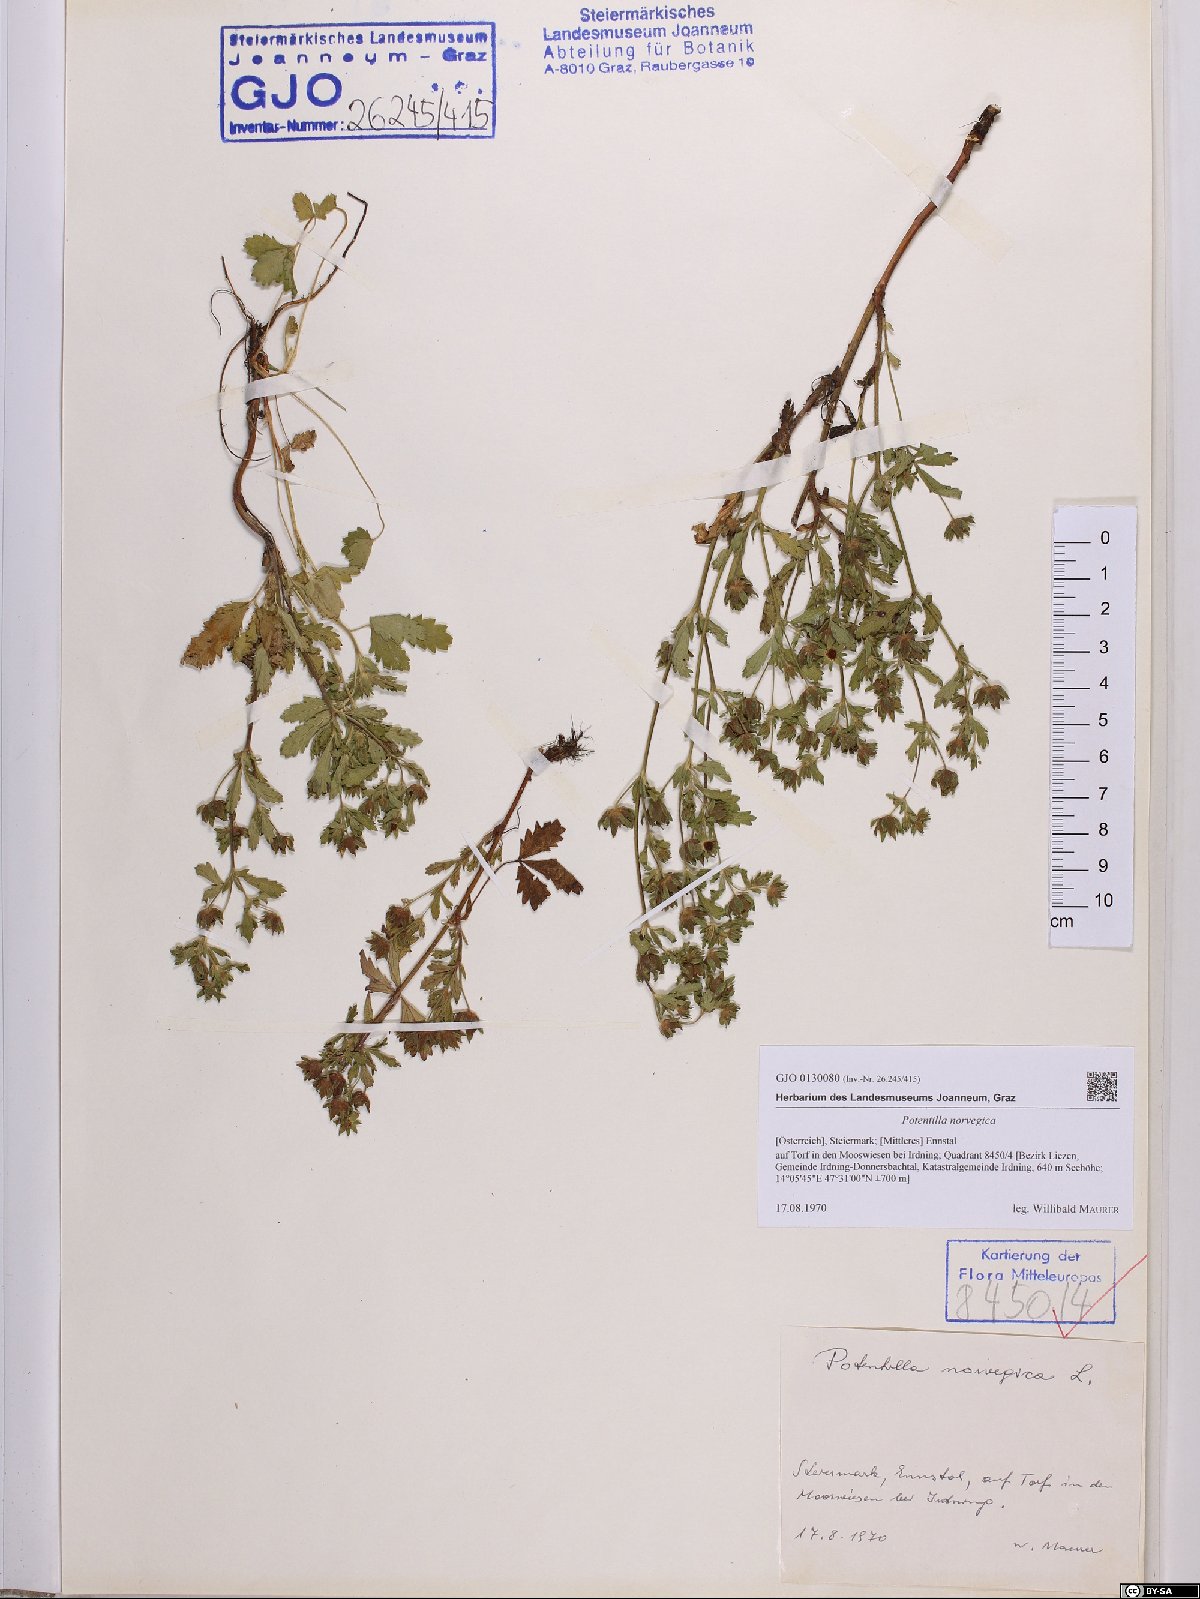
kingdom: Plantae
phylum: Tracheophyta
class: Magnoliopsida
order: Rosales
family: Rosaceae
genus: Potentilla
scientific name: Potentilla norvegica
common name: Ternate-leaved cinquefoil
